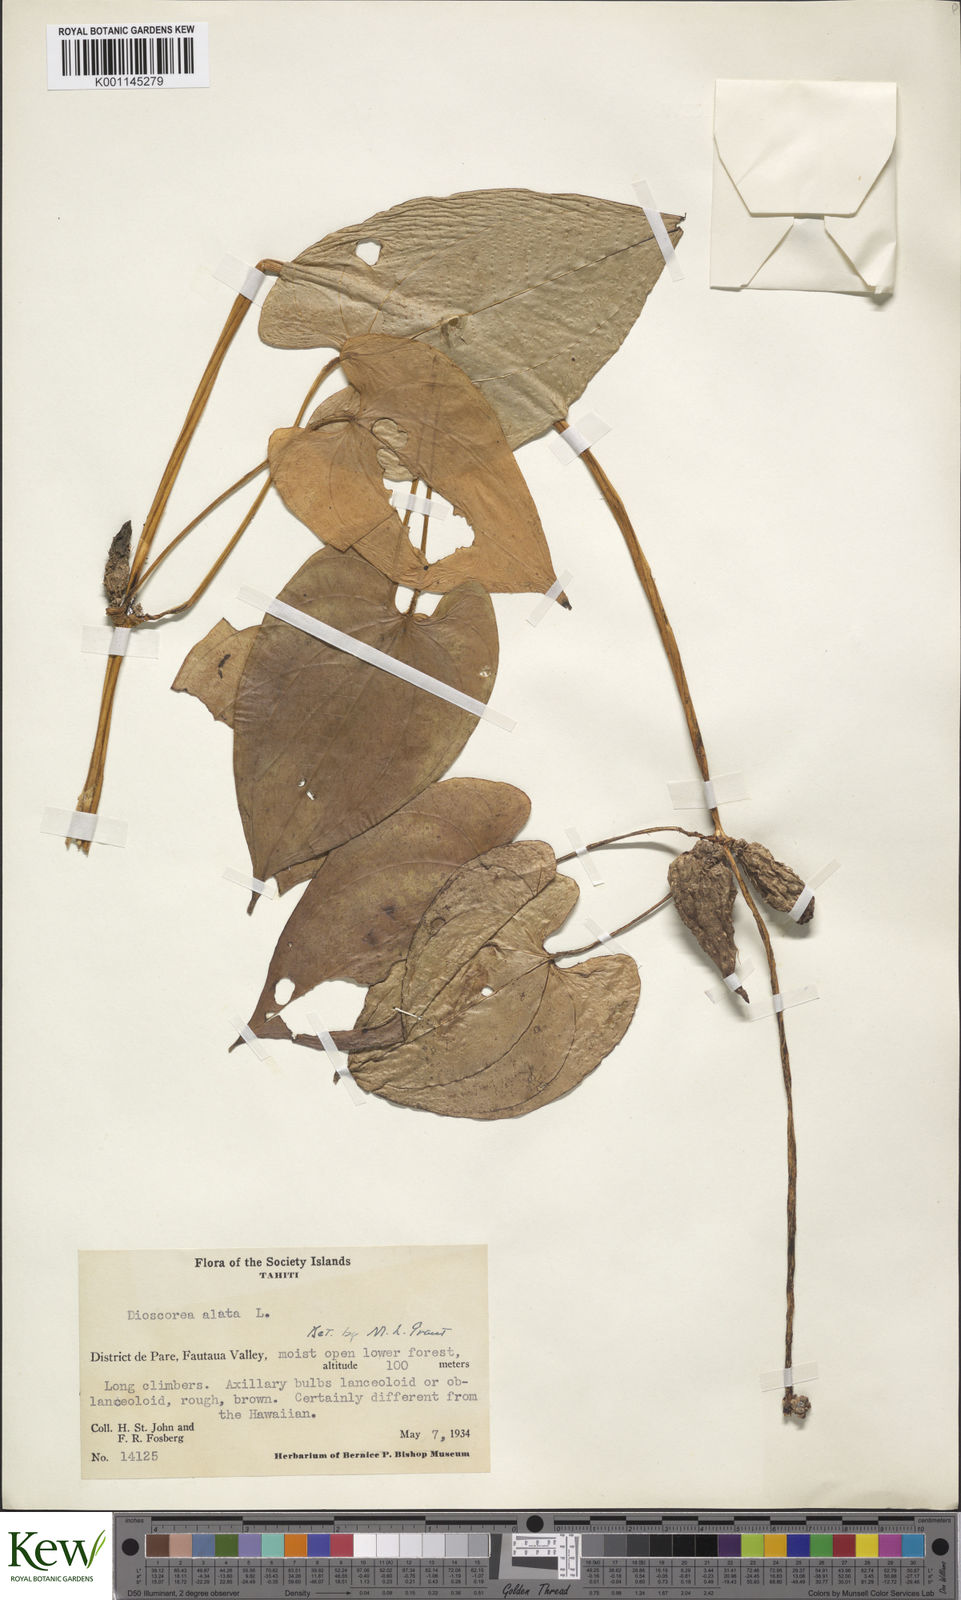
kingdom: Plantae
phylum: Tracheophyta
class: Liliopsida
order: Dioscoreales
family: Dioscoreaceae
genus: Dioscorea
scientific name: Dioscorea alata
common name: Water yam
